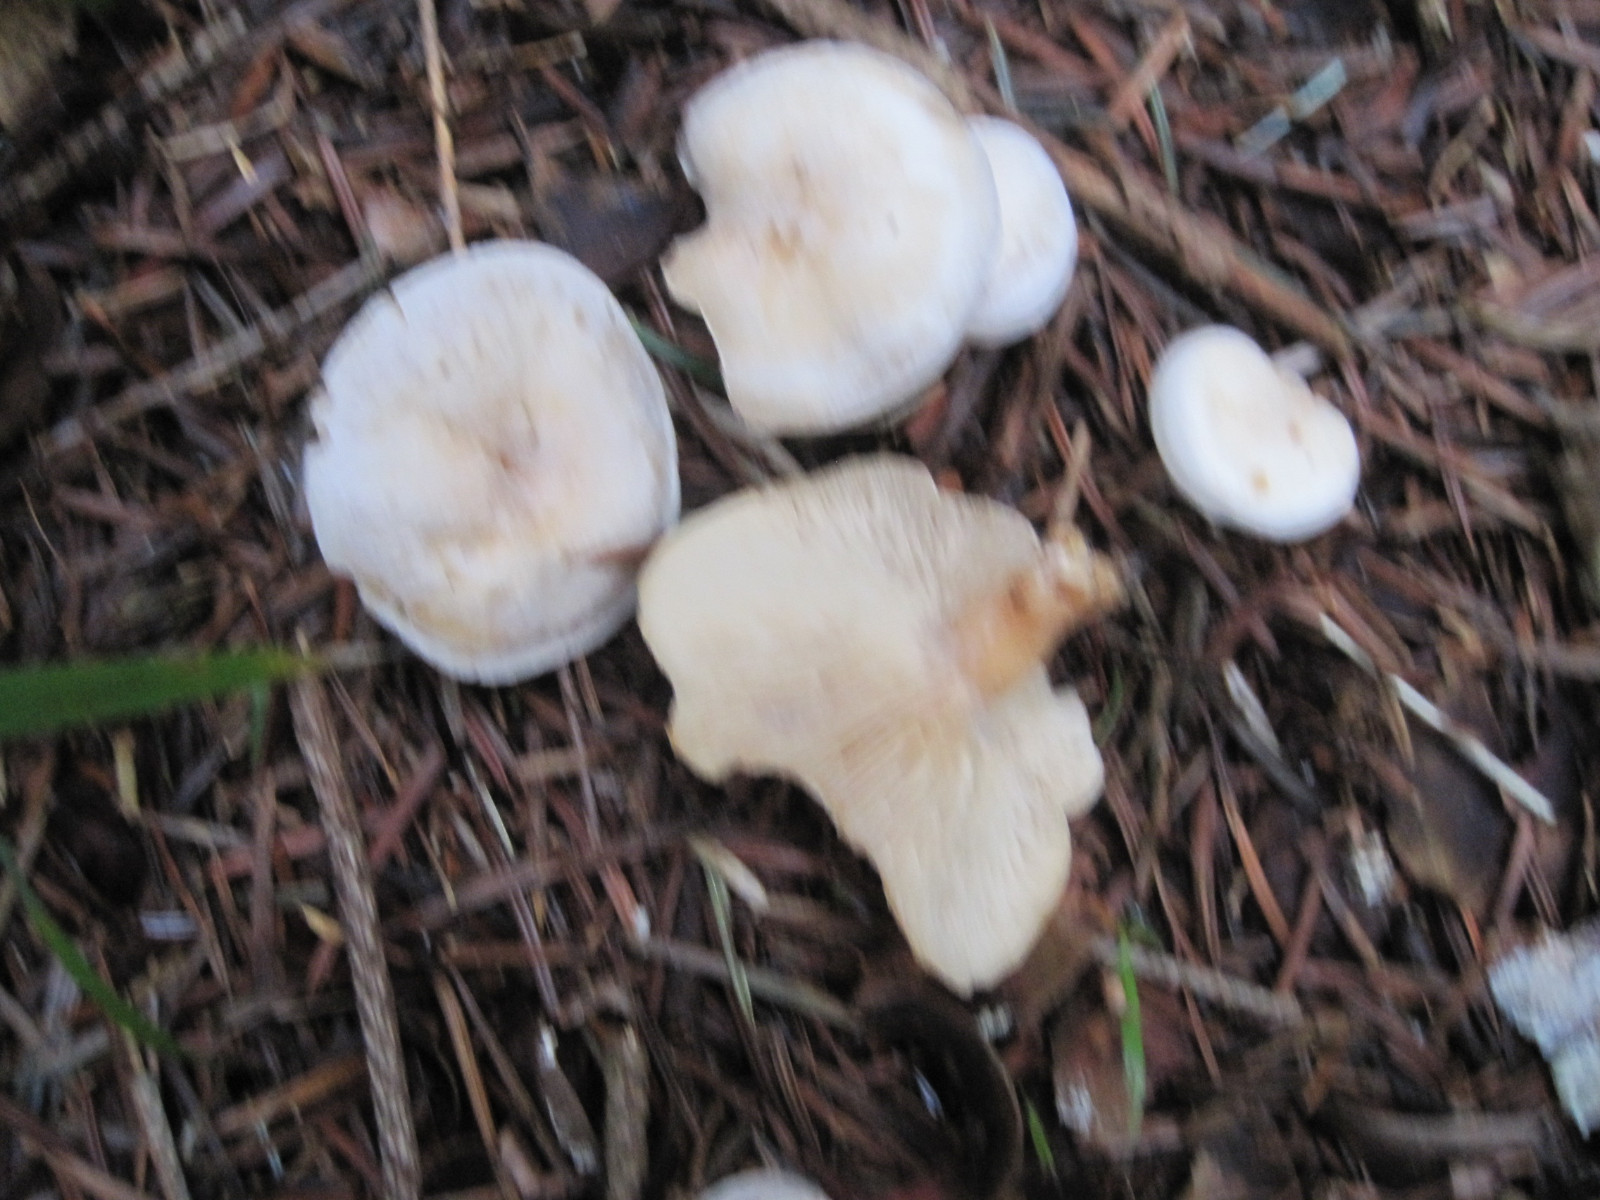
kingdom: Fungi
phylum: Basidiomycota
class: Agaricomycetes
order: Agaricales
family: Tricholomataceae
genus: Leucocybe
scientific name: Leucocybe candicans
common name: kridt-tragthat
